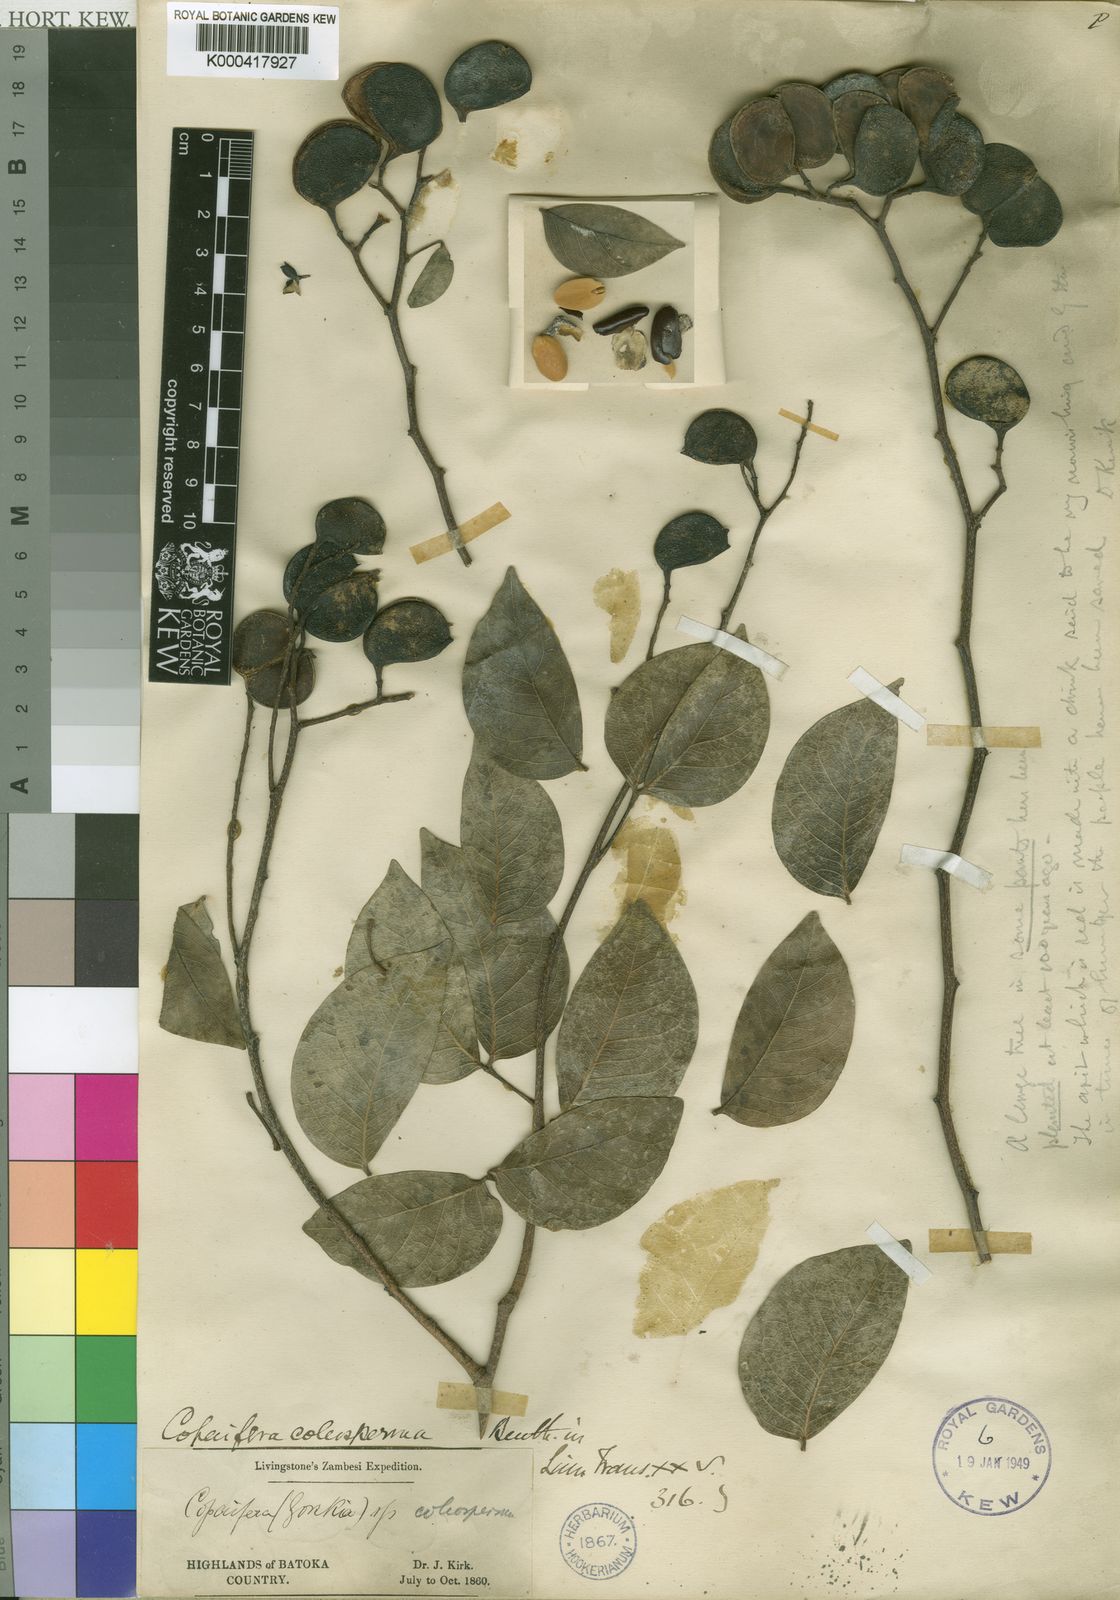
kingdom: Plantae
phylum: Tracheophyta
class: Magnoliopsida
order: Fabales
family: Fabaceae
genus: Guibourtia
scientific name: Guibourtia
